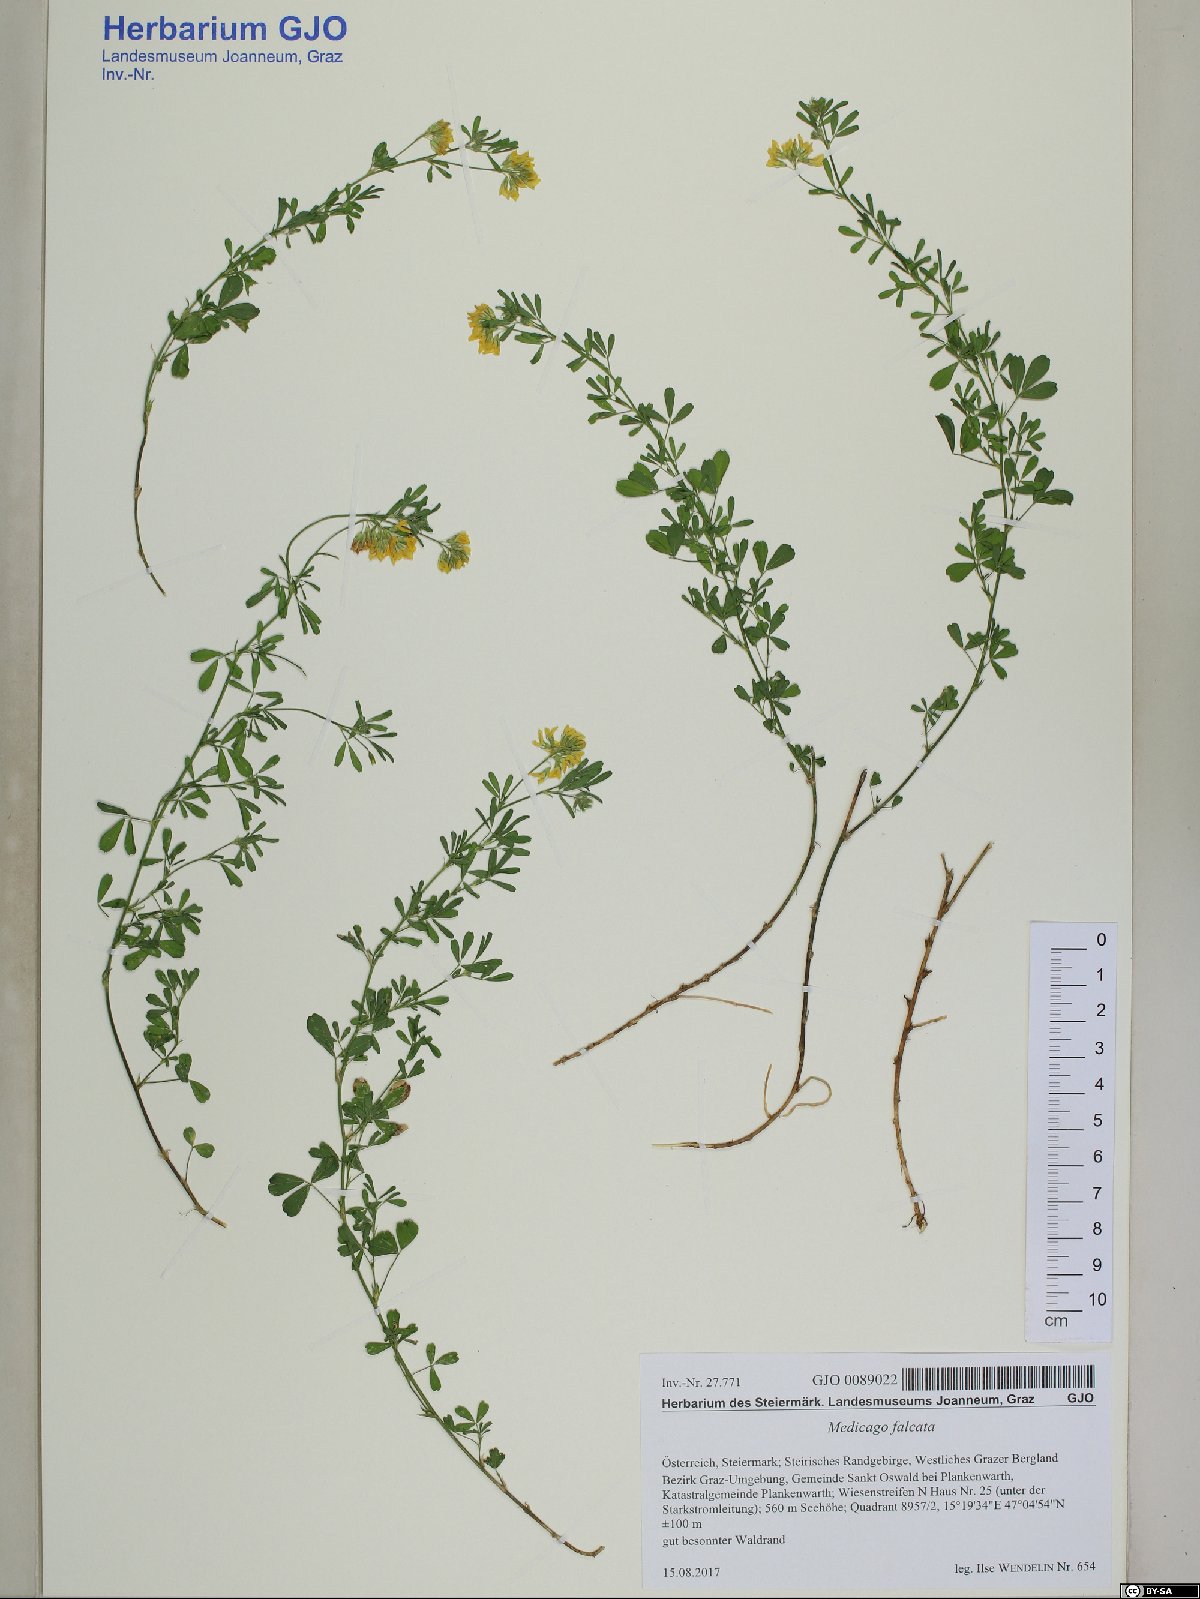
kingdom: Plantae
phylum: Tracheophyta
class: Magnoliopsida
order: Fabales
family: Fabaceae
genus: Medicago
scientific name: Medicago falcata
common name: Sickle medick
